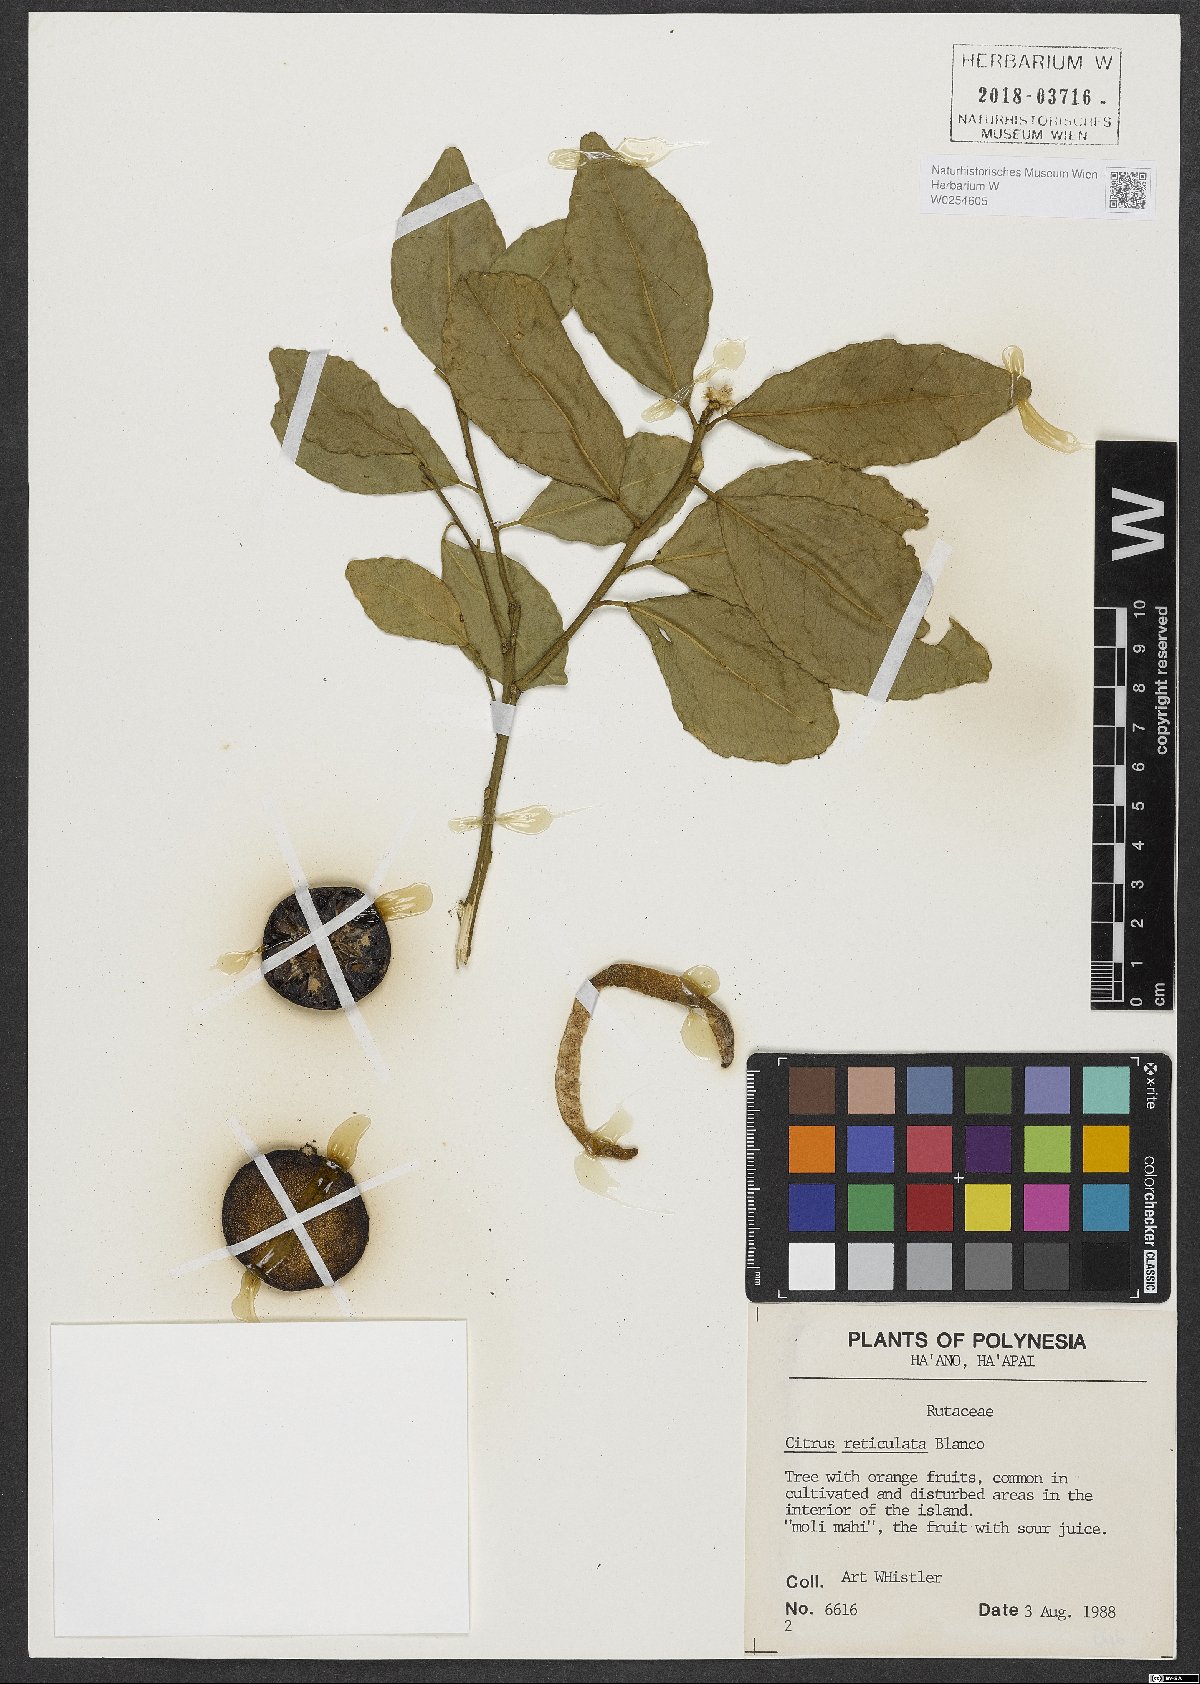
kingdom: Plantae
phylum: Tracheophyta
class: Magnoliopsida
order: Sapindales
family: Rutaceae
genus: Citrus
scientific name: Citrus reticulata
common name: Tangerine
